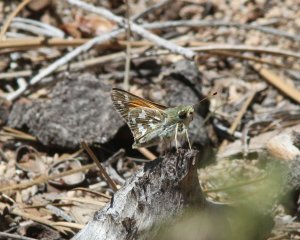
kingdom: Animalia
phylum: Arthropoda
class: Insecta
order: Lepidoptera
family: Hesperiidae
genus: Hesperia
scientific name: Hesperia juba
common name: Juba Skipper
